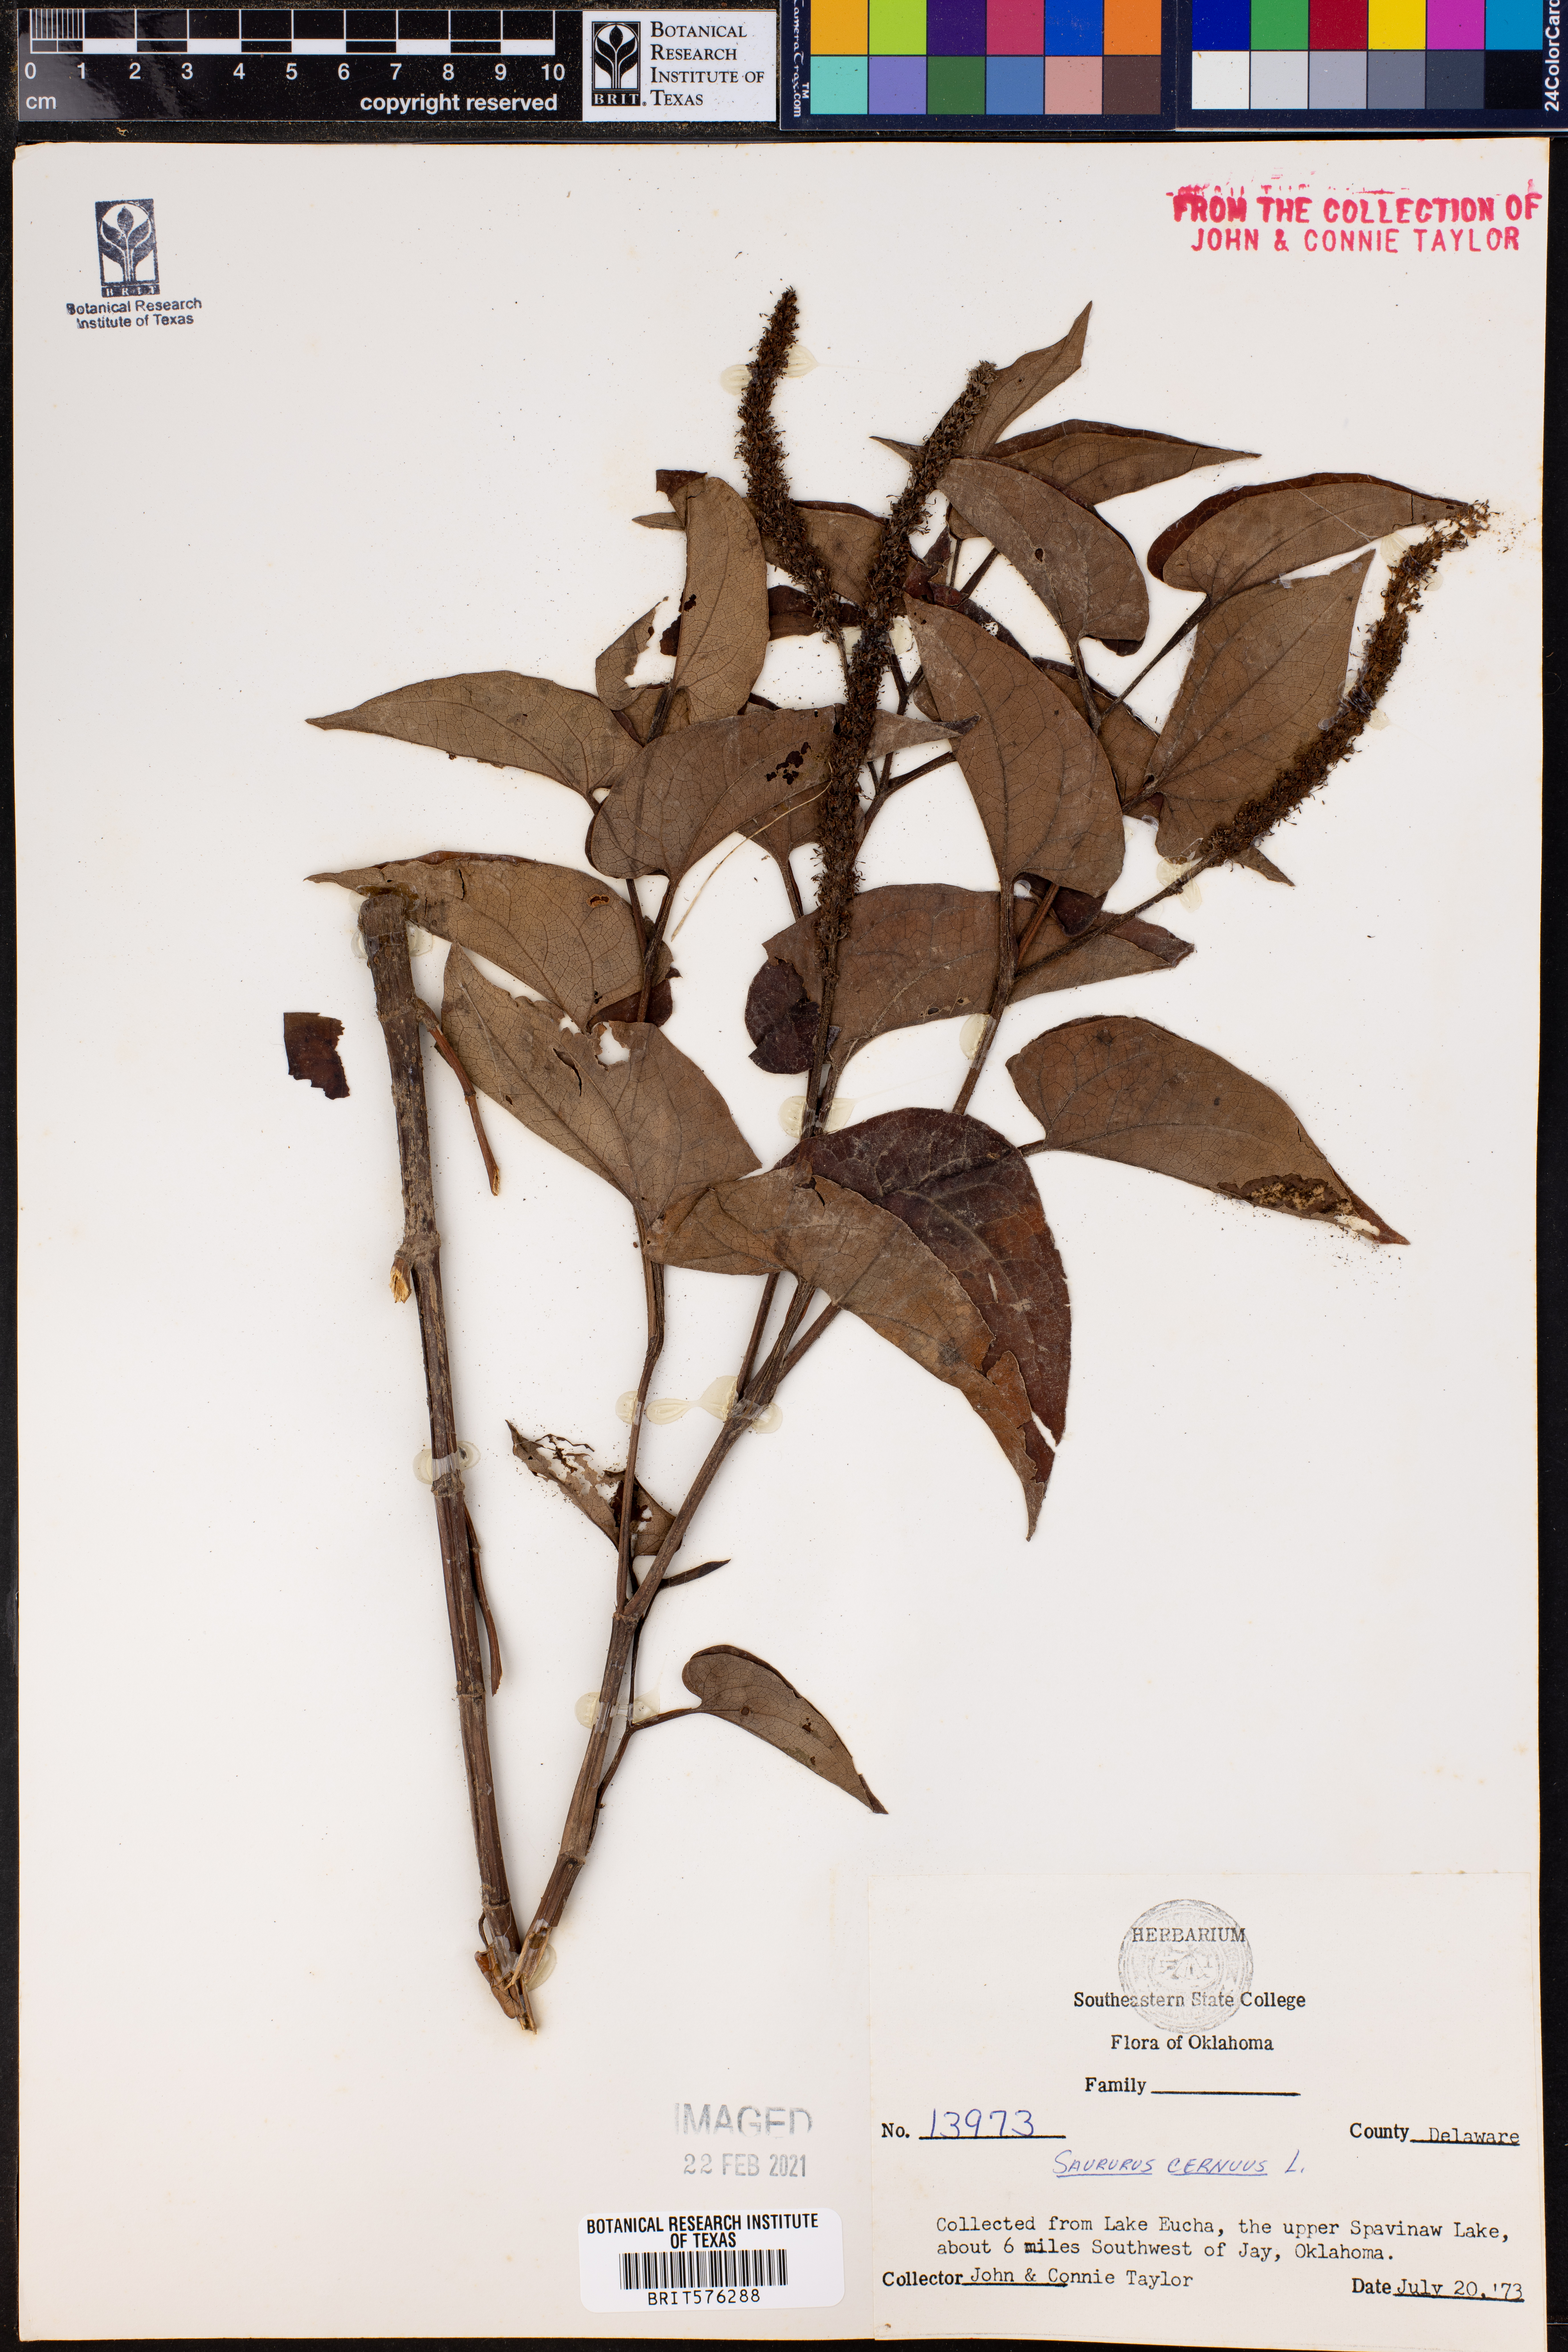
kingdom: Plantae
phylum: Tracheophyta
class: Magnoliopsida
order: Piperales
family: Saururaceae
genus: Saururus
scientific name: Saururus cernuus
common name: Lizard's-tail
